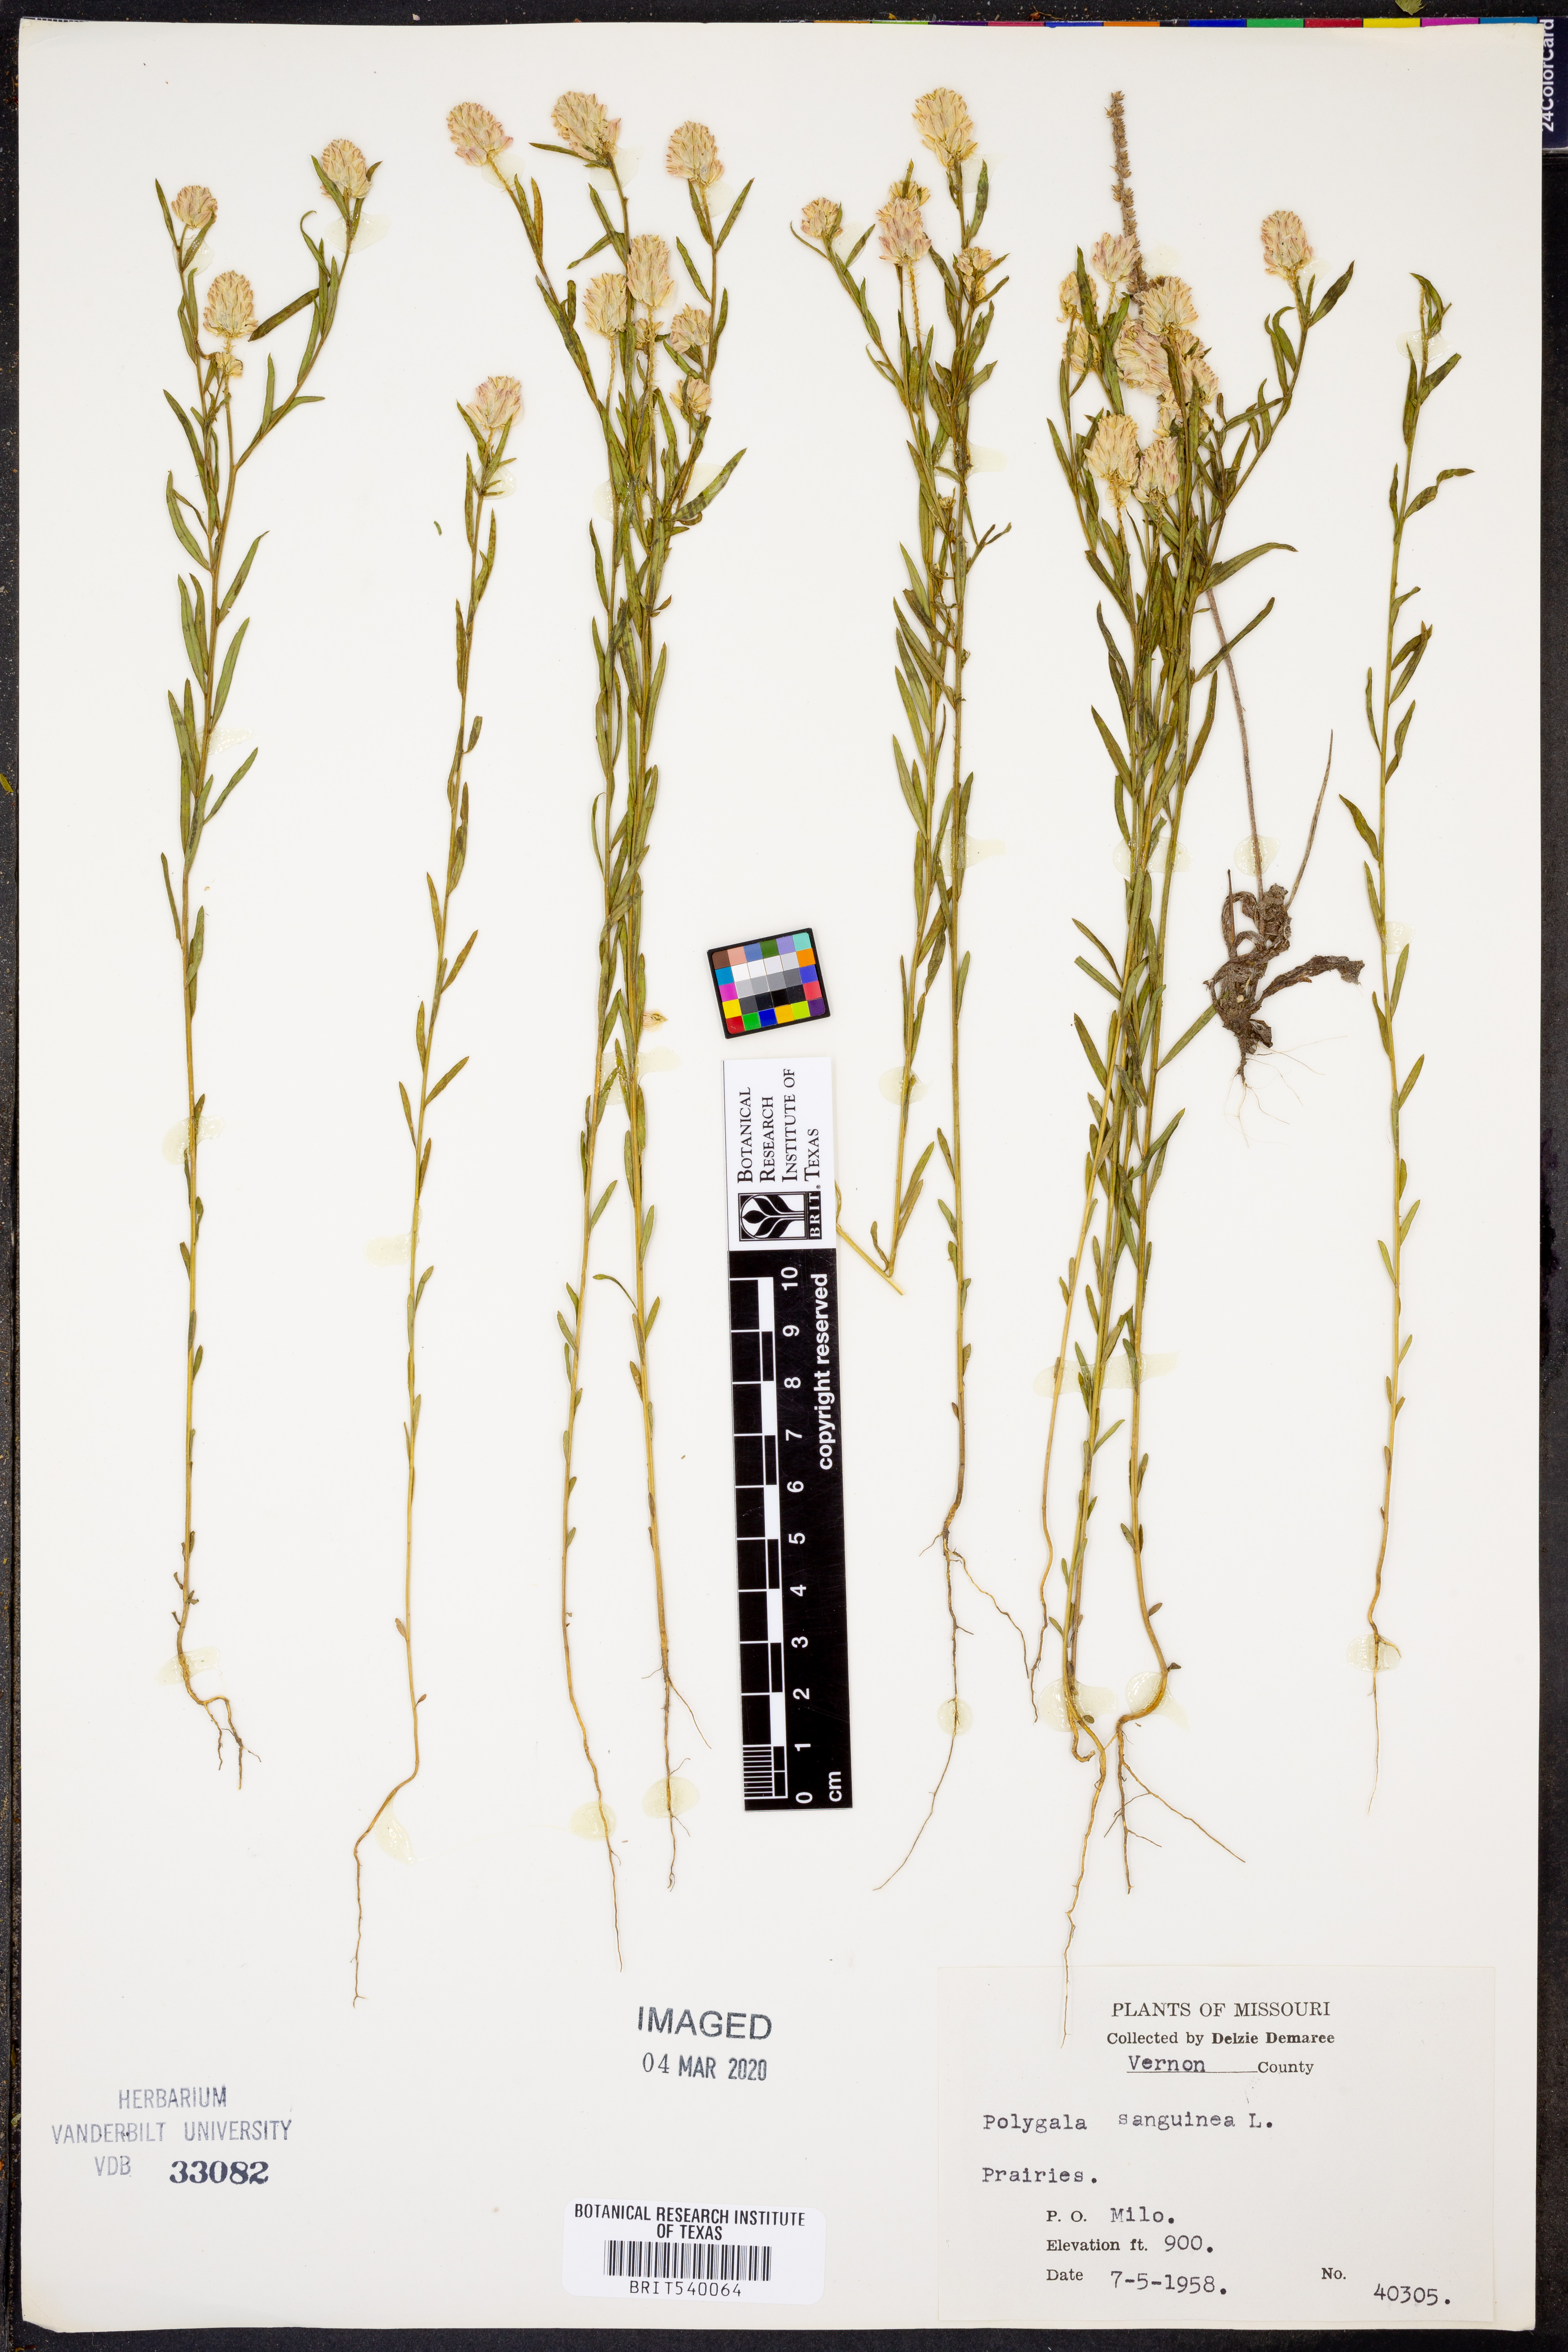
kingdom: Plantae
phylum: Tracheophyta
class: Magnoliopsida
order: Fabales
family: Polygalaceae
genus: Polygala
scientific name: Polygala sanguinea
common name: Blood milkwort
